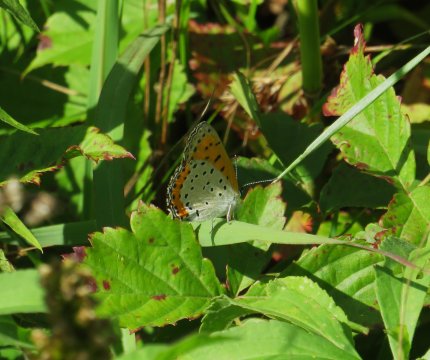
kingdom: Animalia
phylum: Arthropoda
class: Insecta
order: Lepidoptera
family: Sesiidae
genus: Sesia
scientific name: Sesia Lycaena hyllus
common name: Bronze Copper
